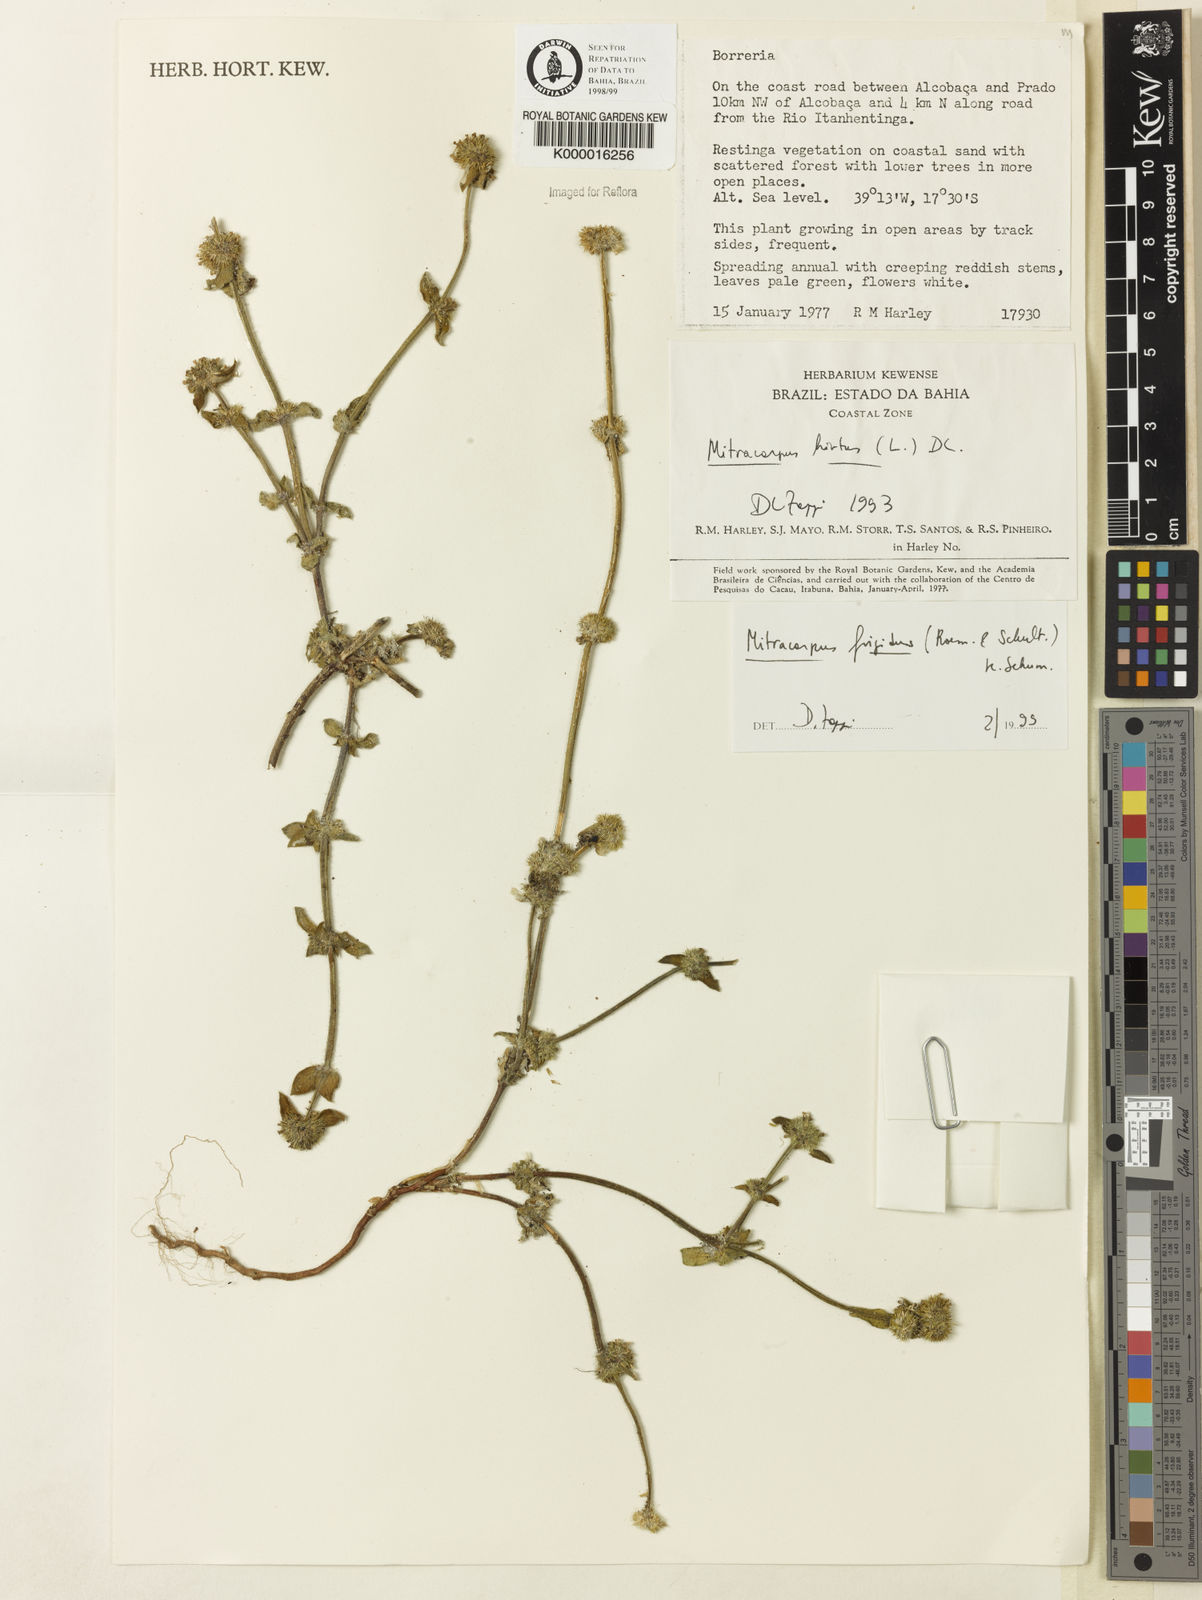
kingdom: Plantae
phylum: Tracheophyta
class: Magnoliopsida
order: Gentianales
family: Rubiaceae
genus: Mitracarpus
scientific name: Mitracarpus frigidus
